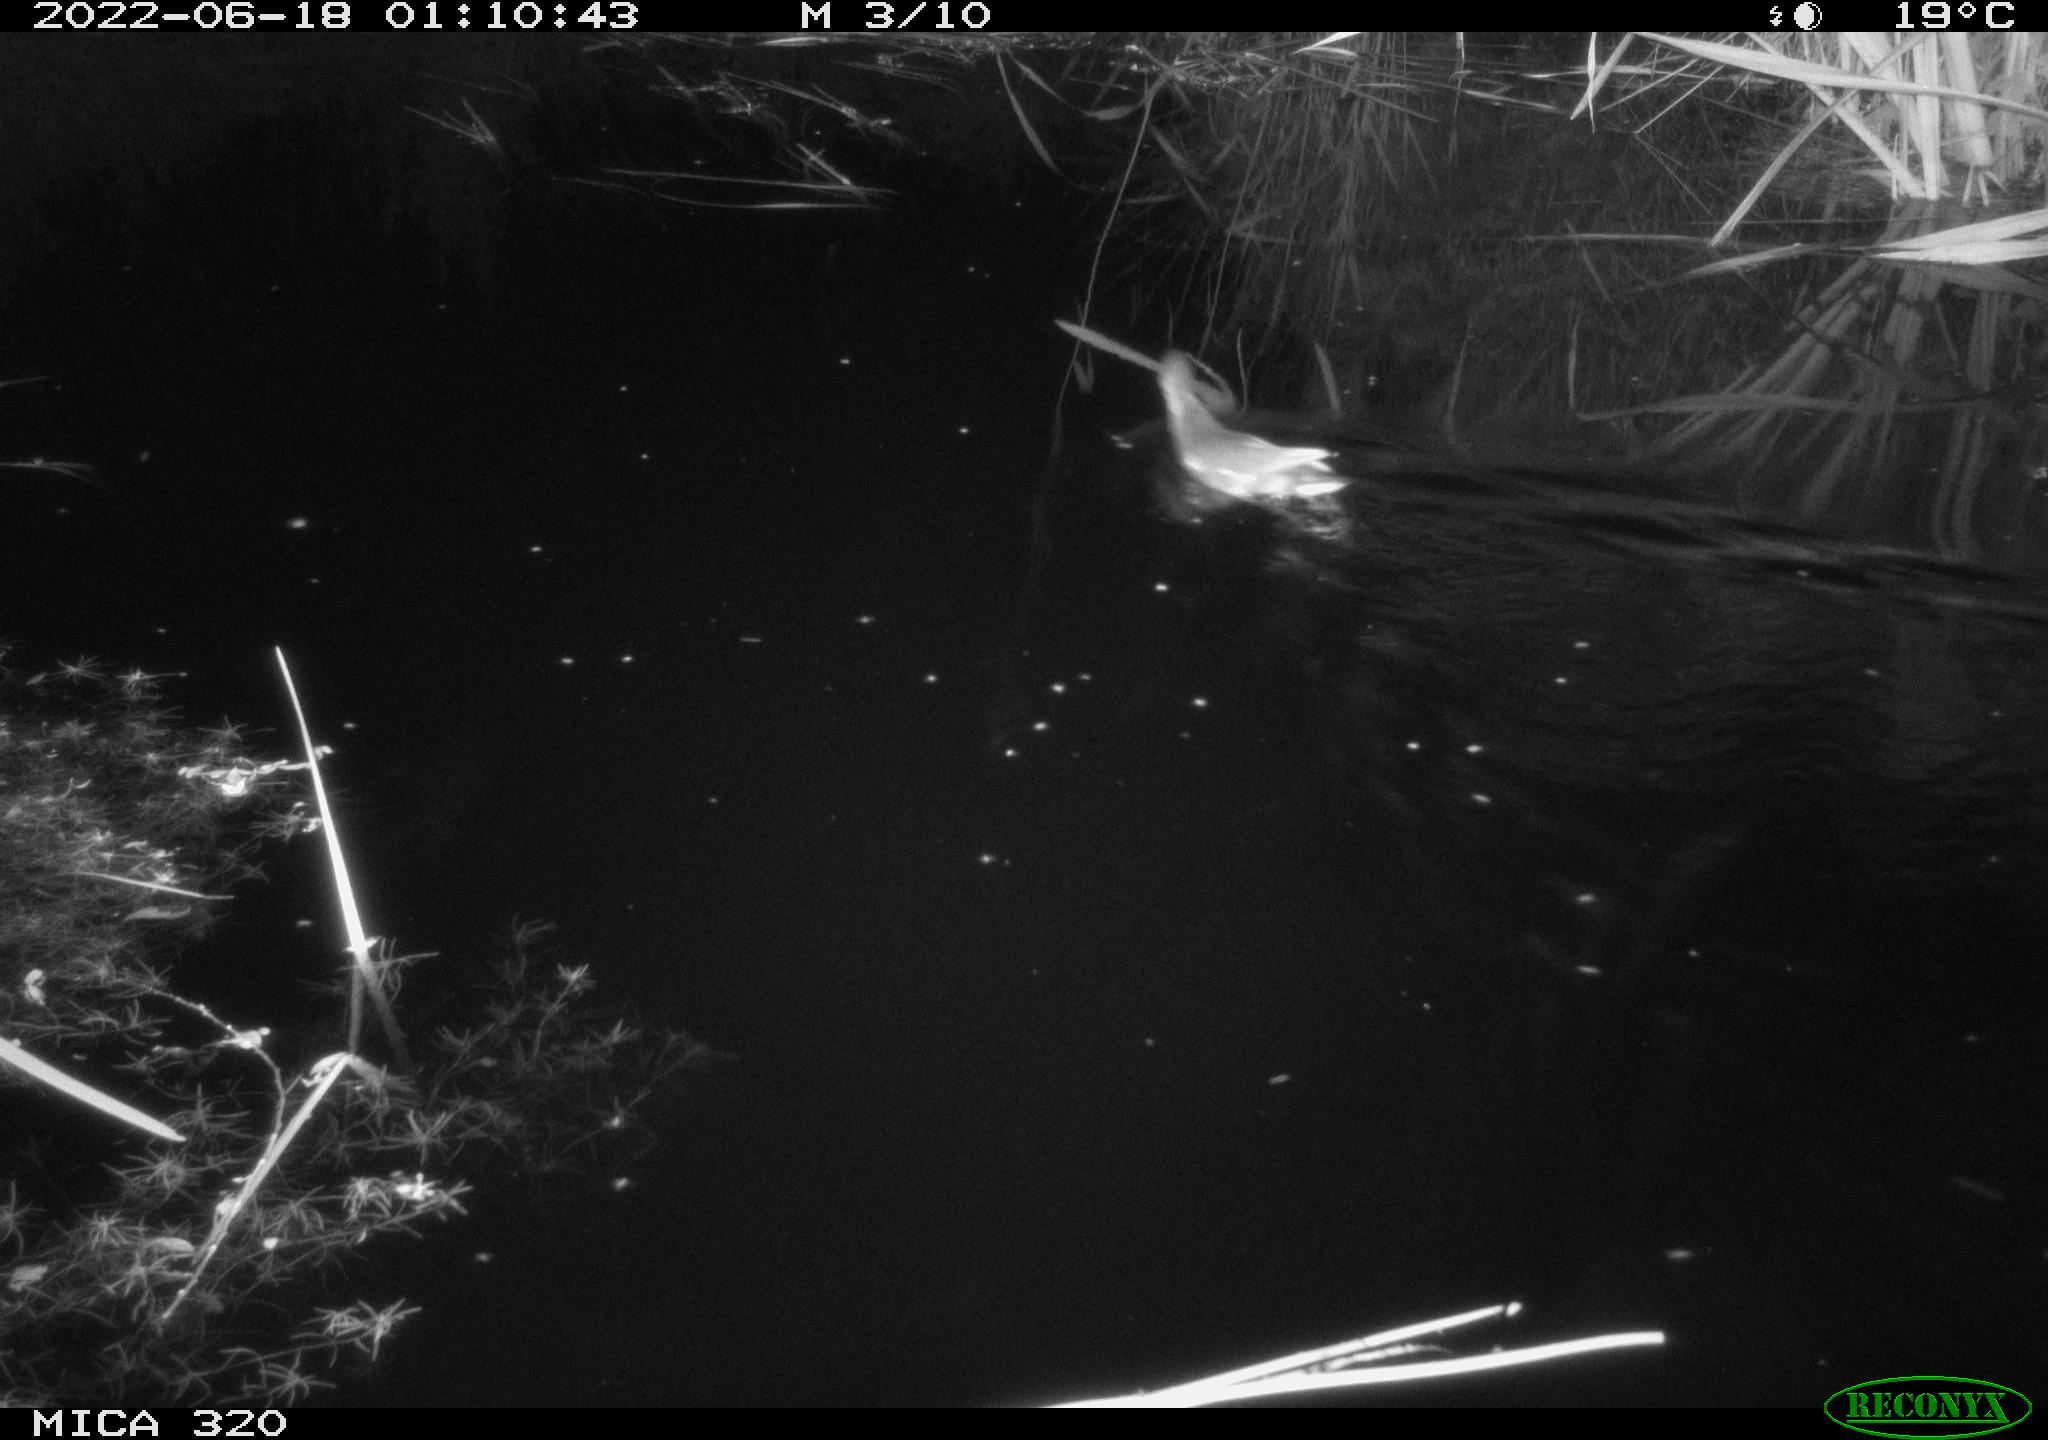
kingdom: Animalia
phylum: Chordata
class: Aves
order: Gruiformes
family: Rallidae
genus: Gallinula
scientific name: Gallinula chloropus
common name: Common moorhen
